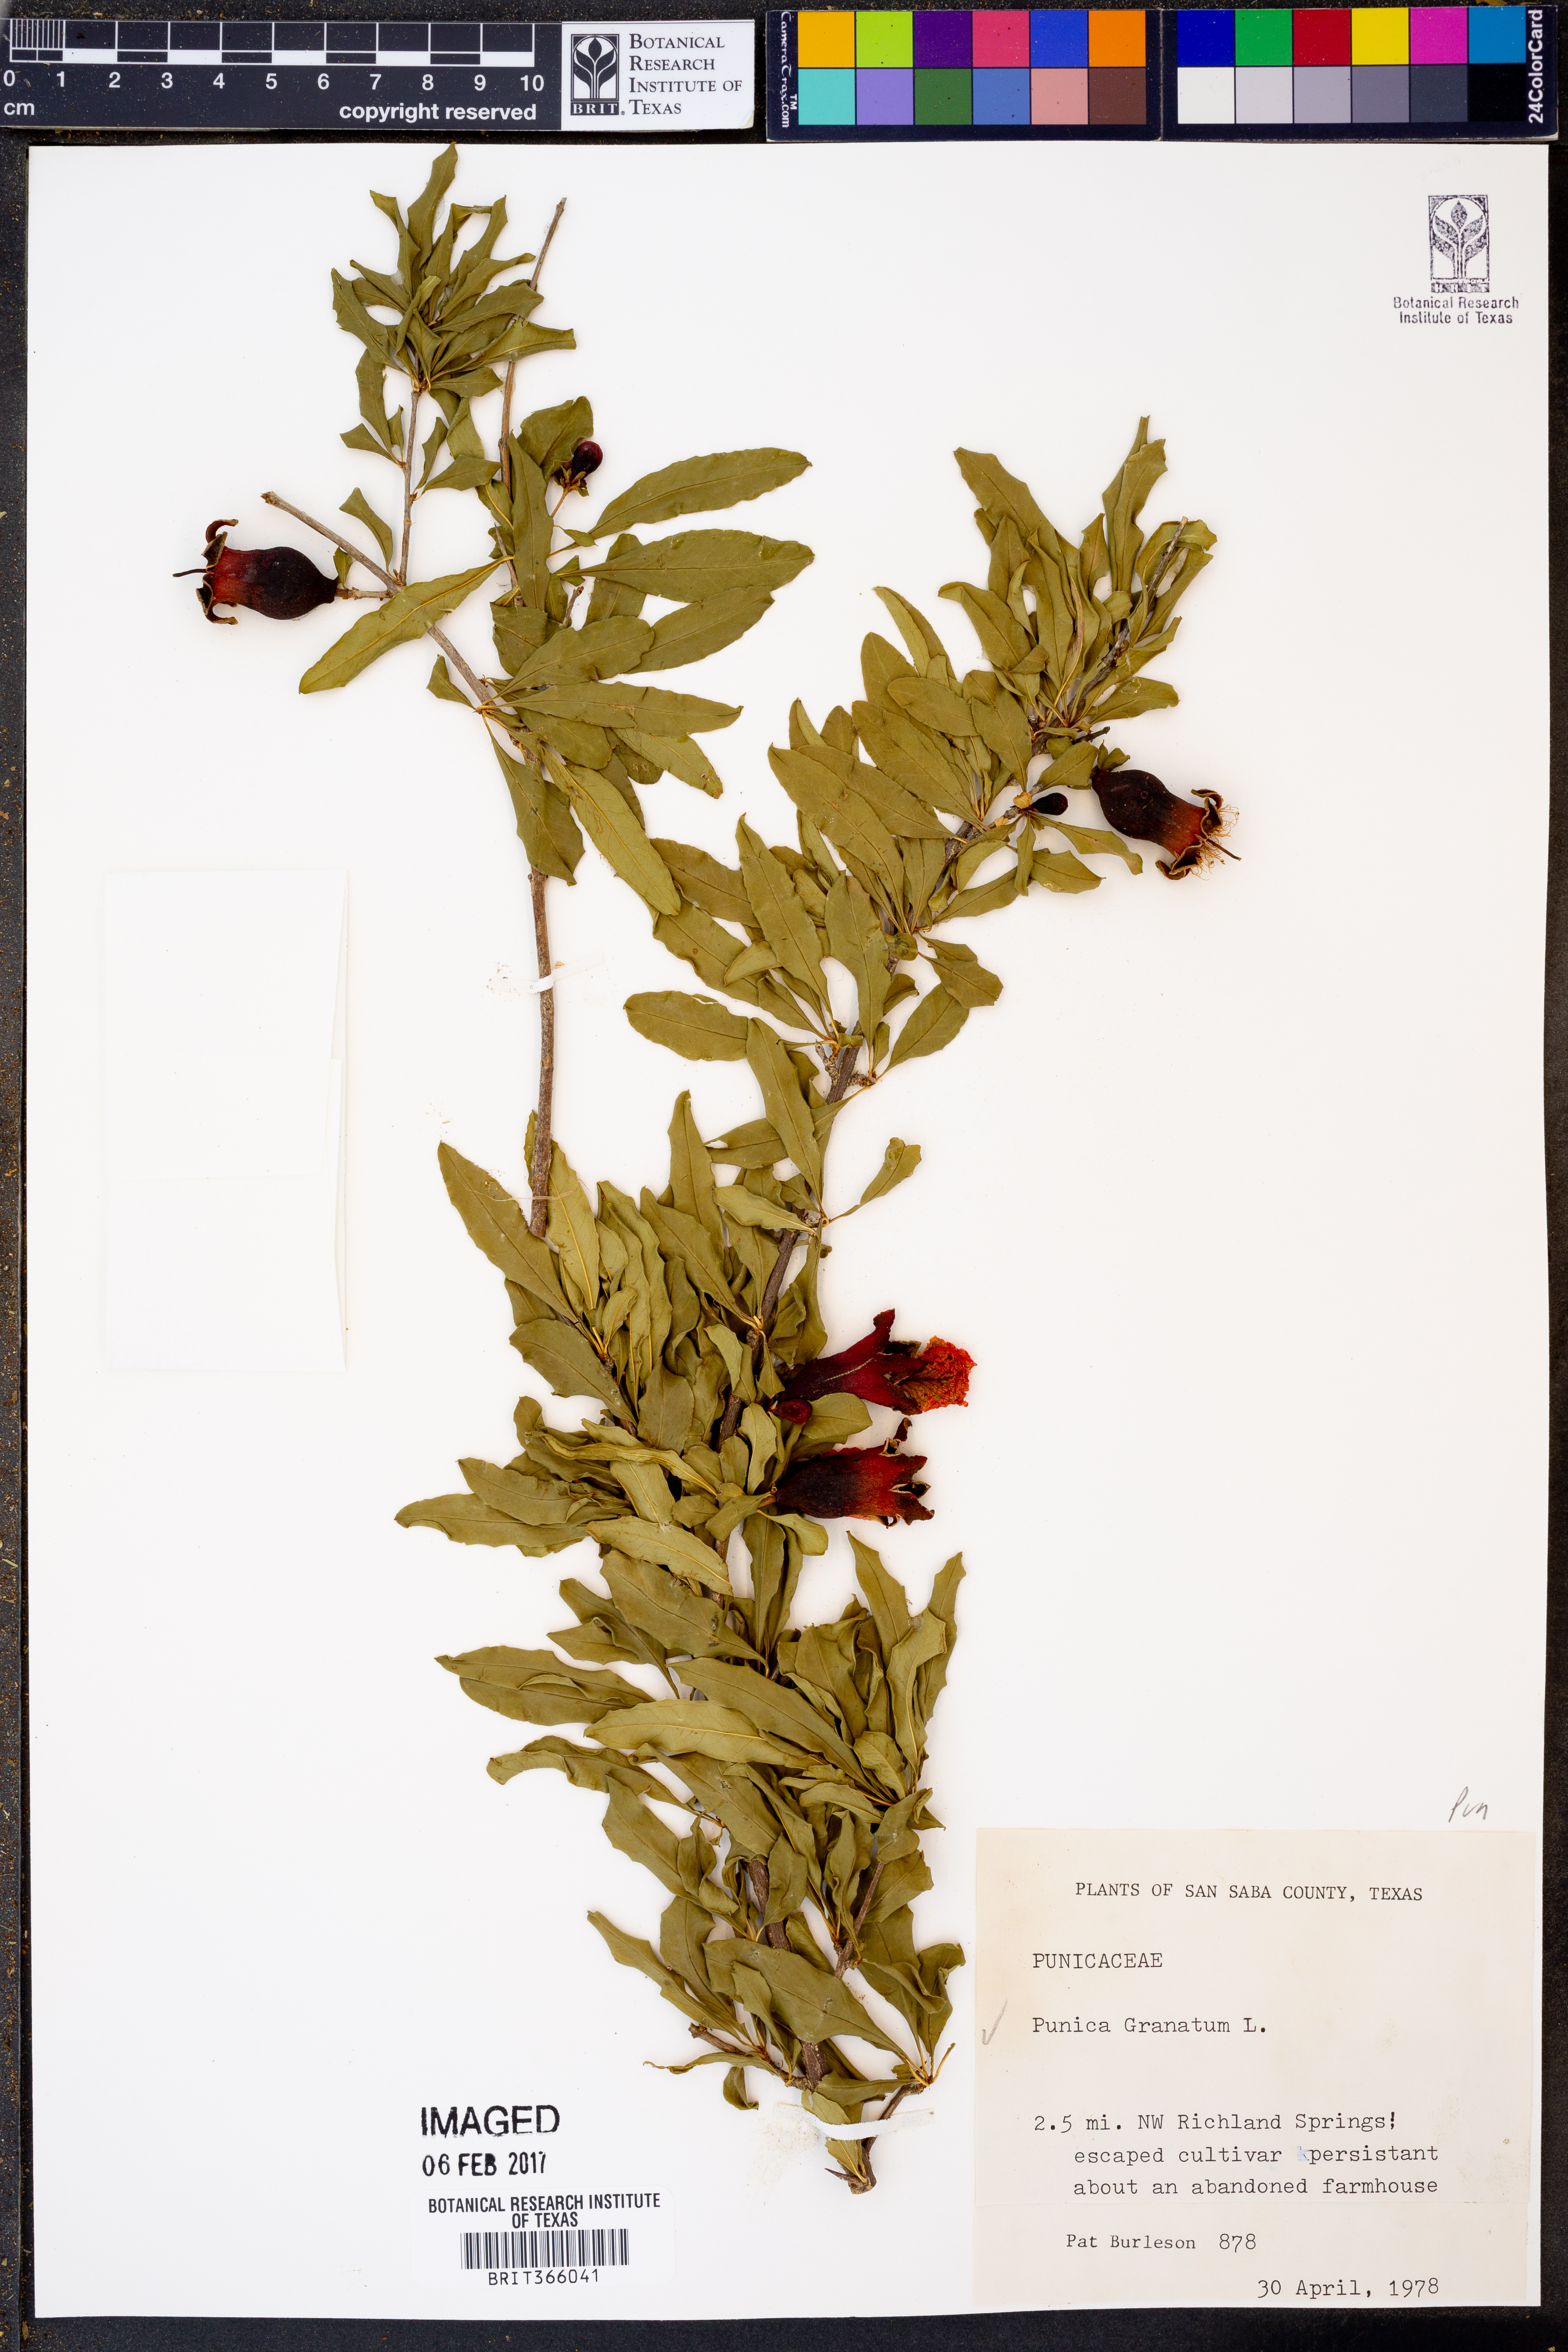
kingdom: Plantae
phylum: Tracheophyta
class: Magnoliopsida
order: Myrtales
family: Lythraceae
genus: Punica
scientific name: Punica granatum
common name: Pomegranate
